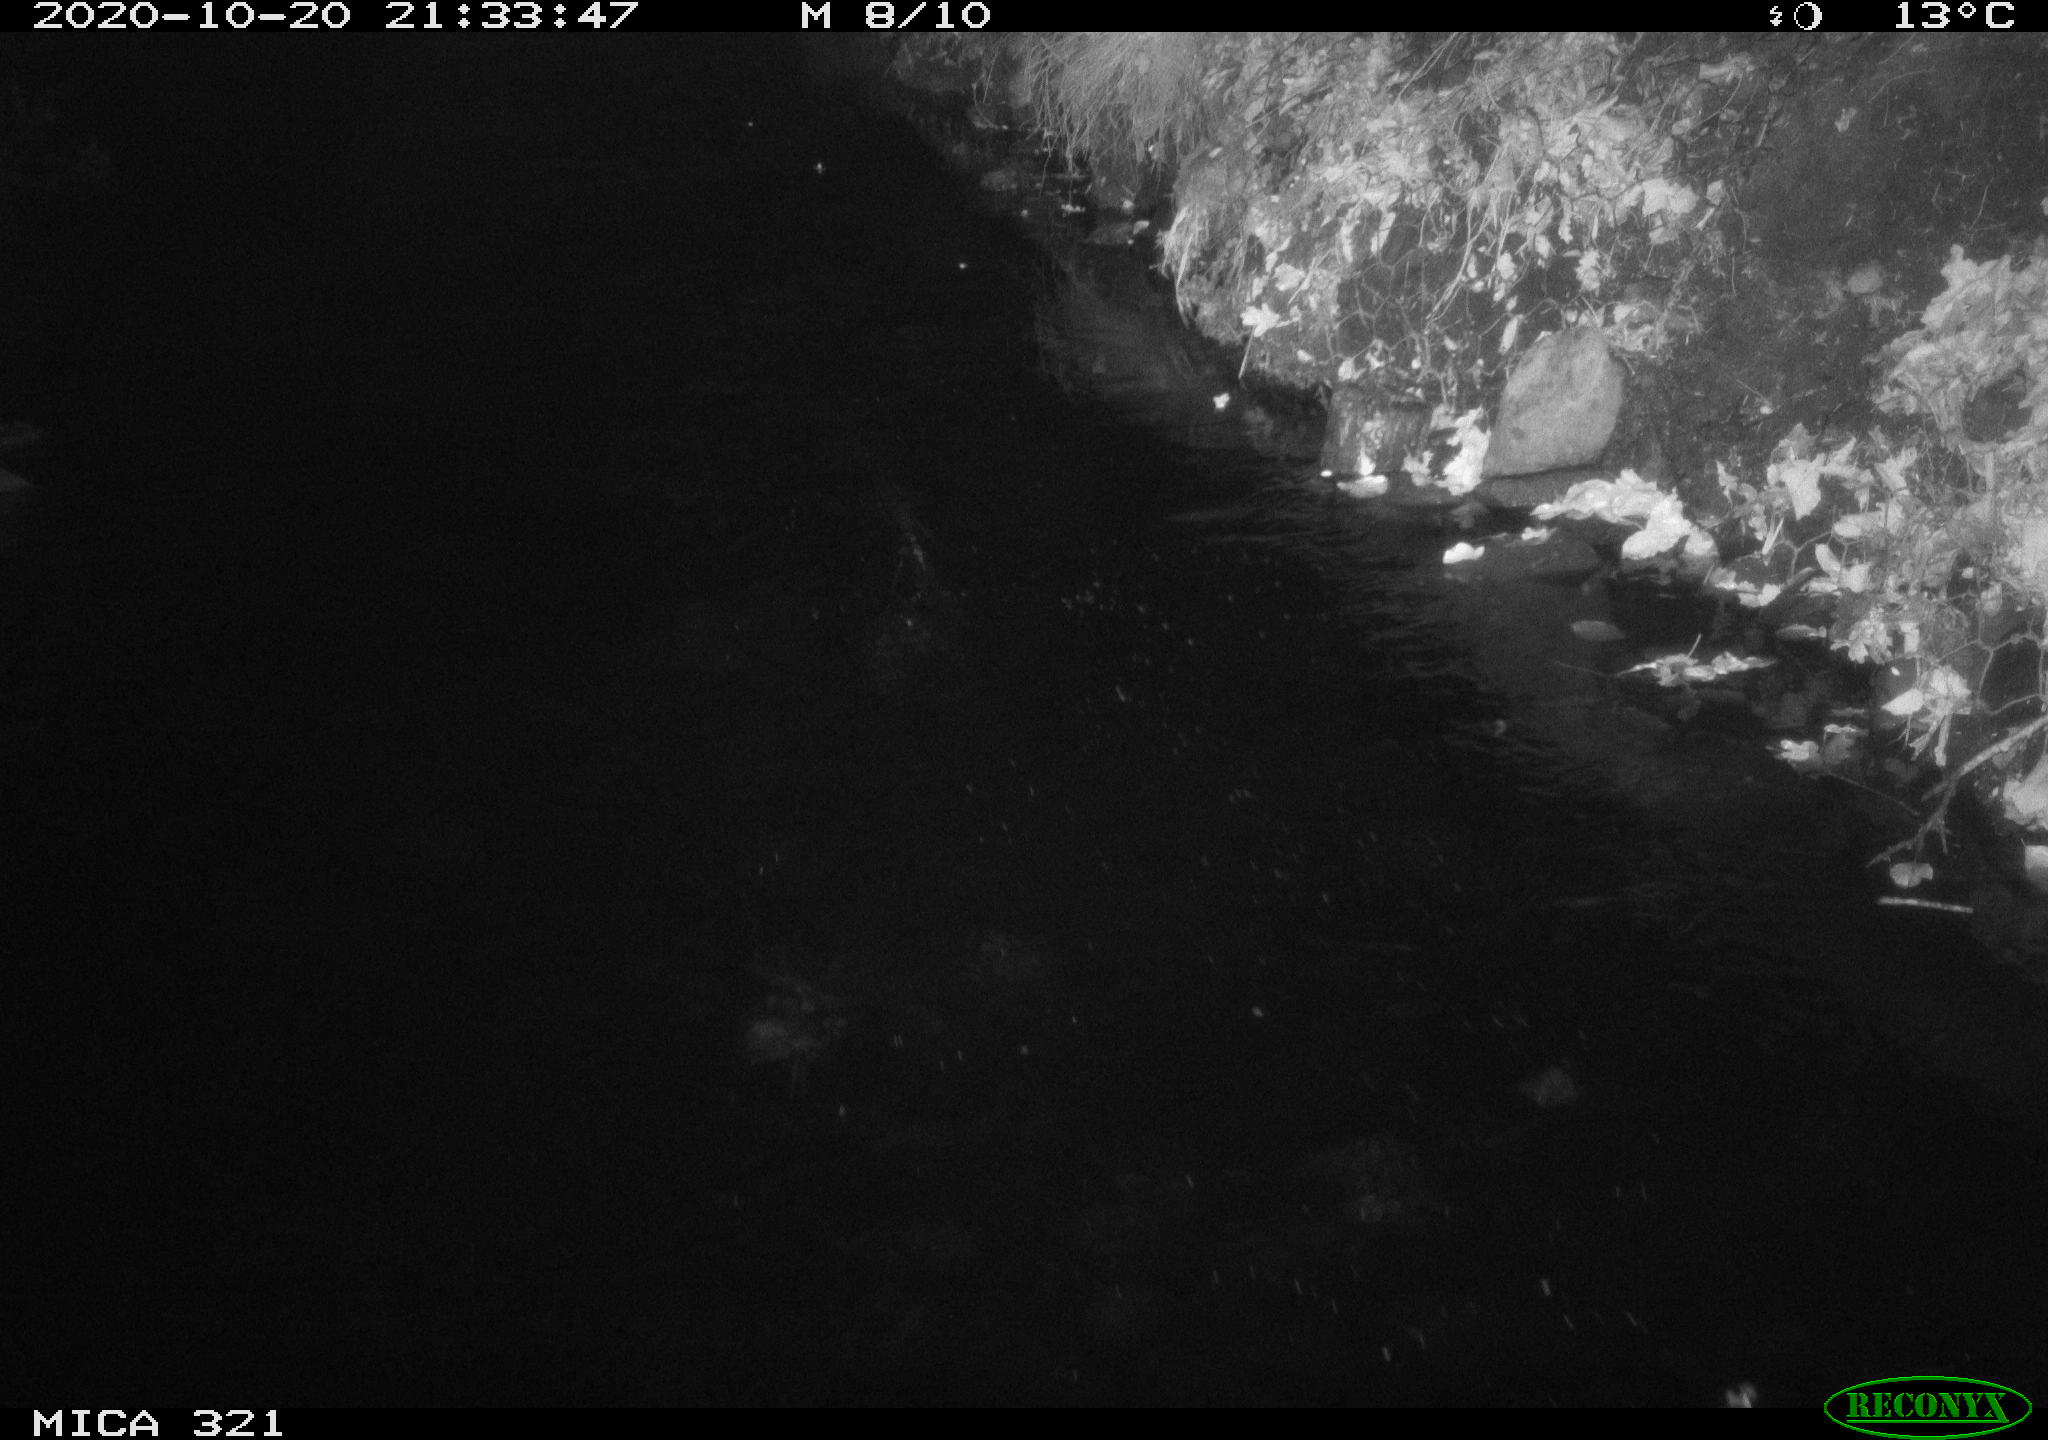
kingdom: Animalia
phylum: Chordata
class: Mammalia
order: Rodentia
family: Muridae
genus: Rattus
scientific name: Rattus norvegicus
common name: Brown rat
